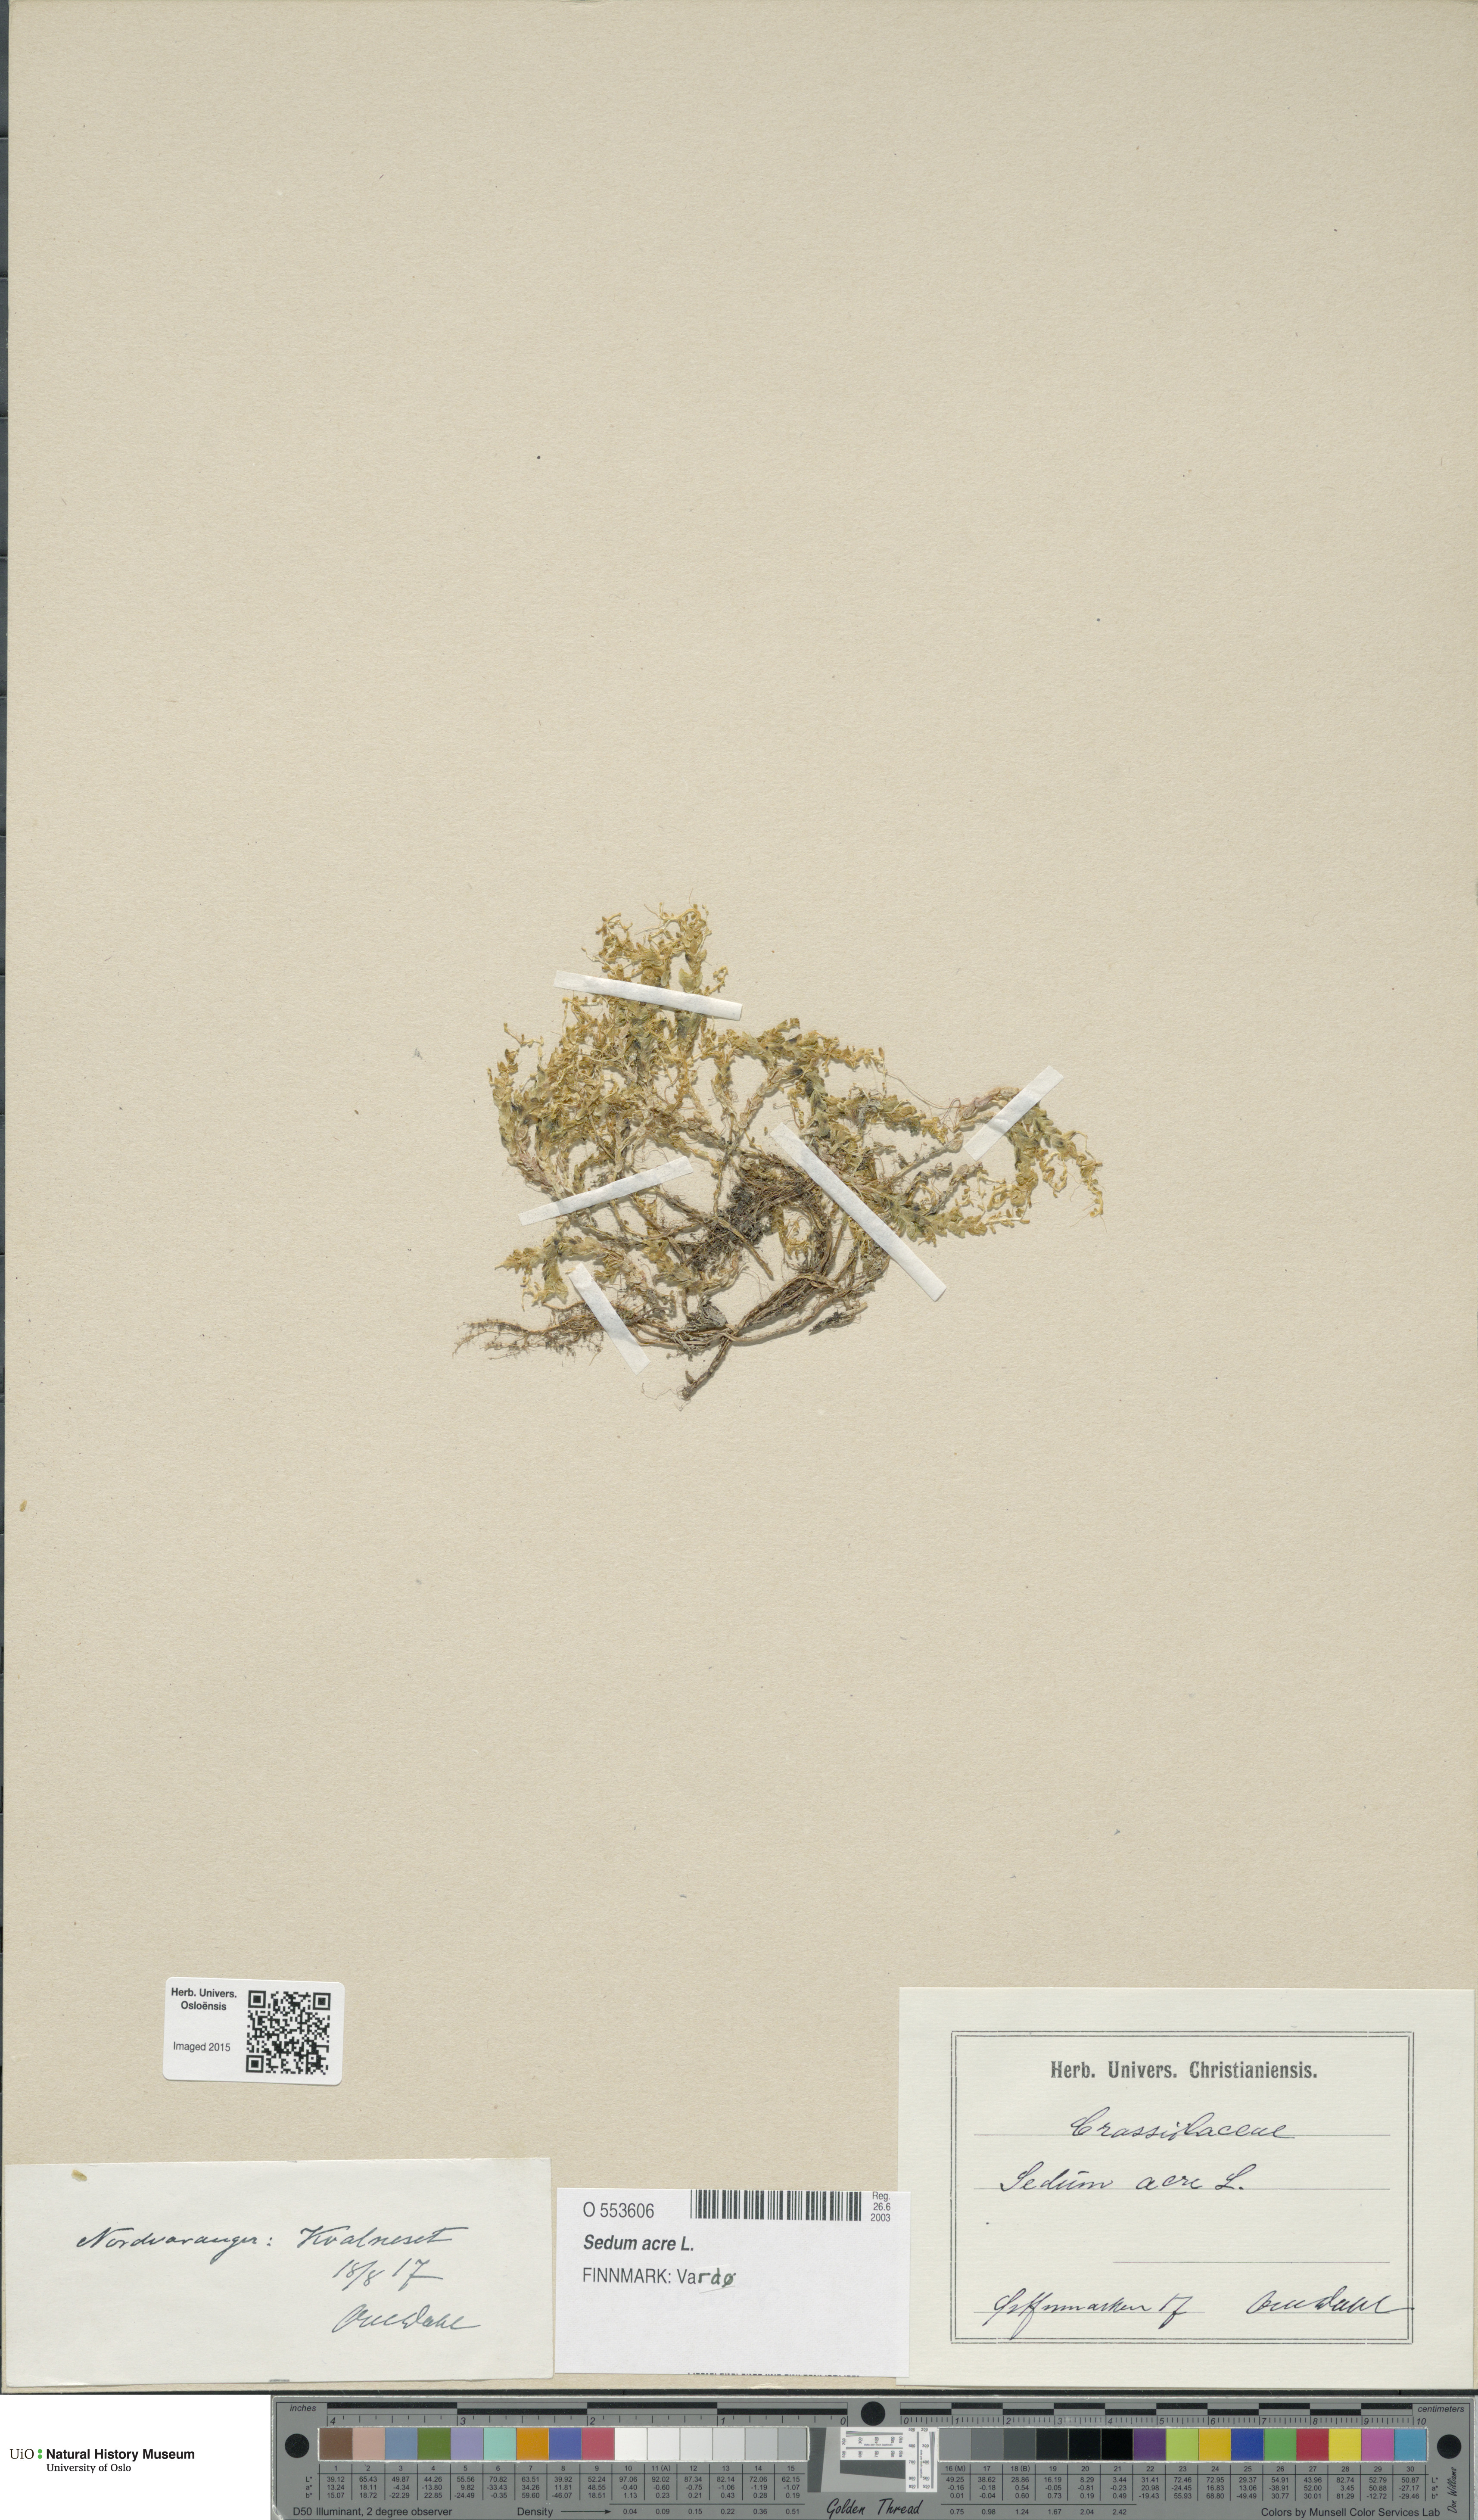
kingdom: Plantae
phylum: Tracheophyta
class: Magnoliopsida
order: Saxifragales
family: Crassulaceae
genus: Sedum
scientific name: Sedum acre
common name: Biting stonecrop
